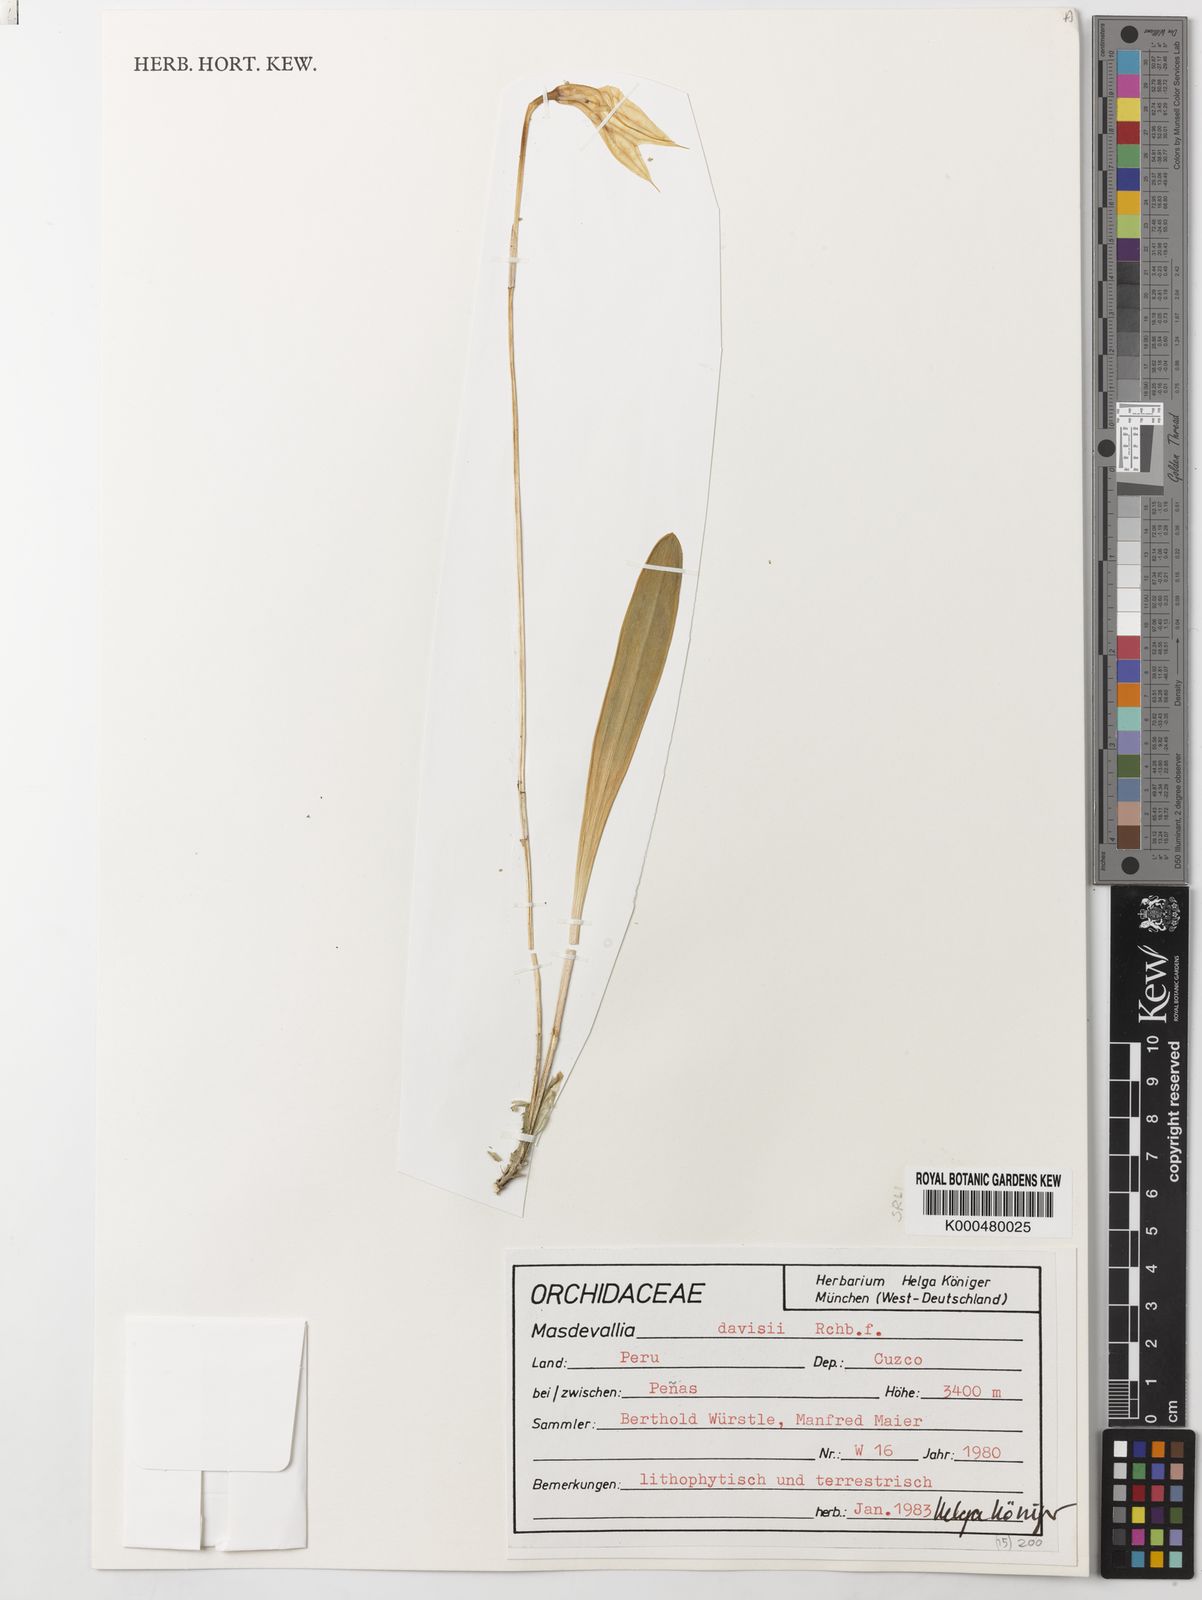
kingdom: Plantae
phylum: Tracheophyta
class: Liliopsida
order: Asparagales
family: Orchidaceae
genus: Masdevallia
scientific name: Masdevallia davisii
